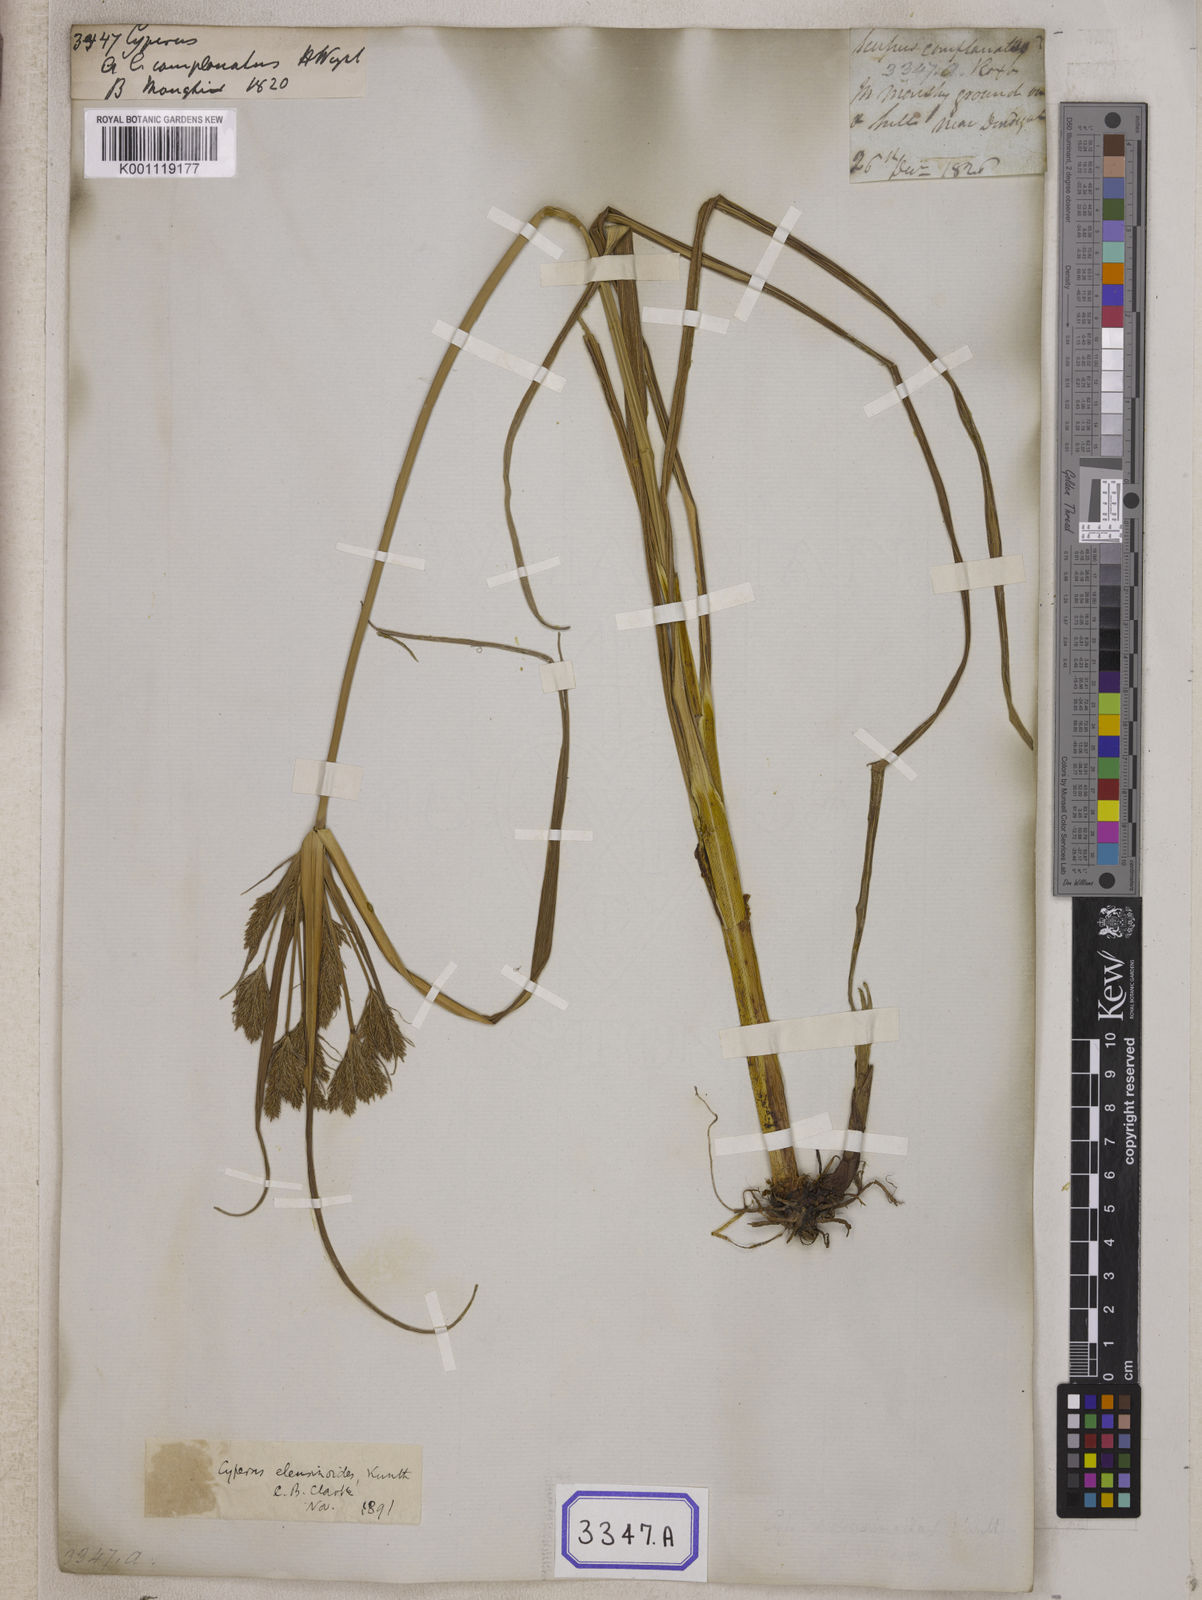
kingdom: Plantae
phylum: Tracheophyta
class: Liliopsida
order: Poales
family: Cyperaceae
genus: Cyperus
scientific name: Cyperus
